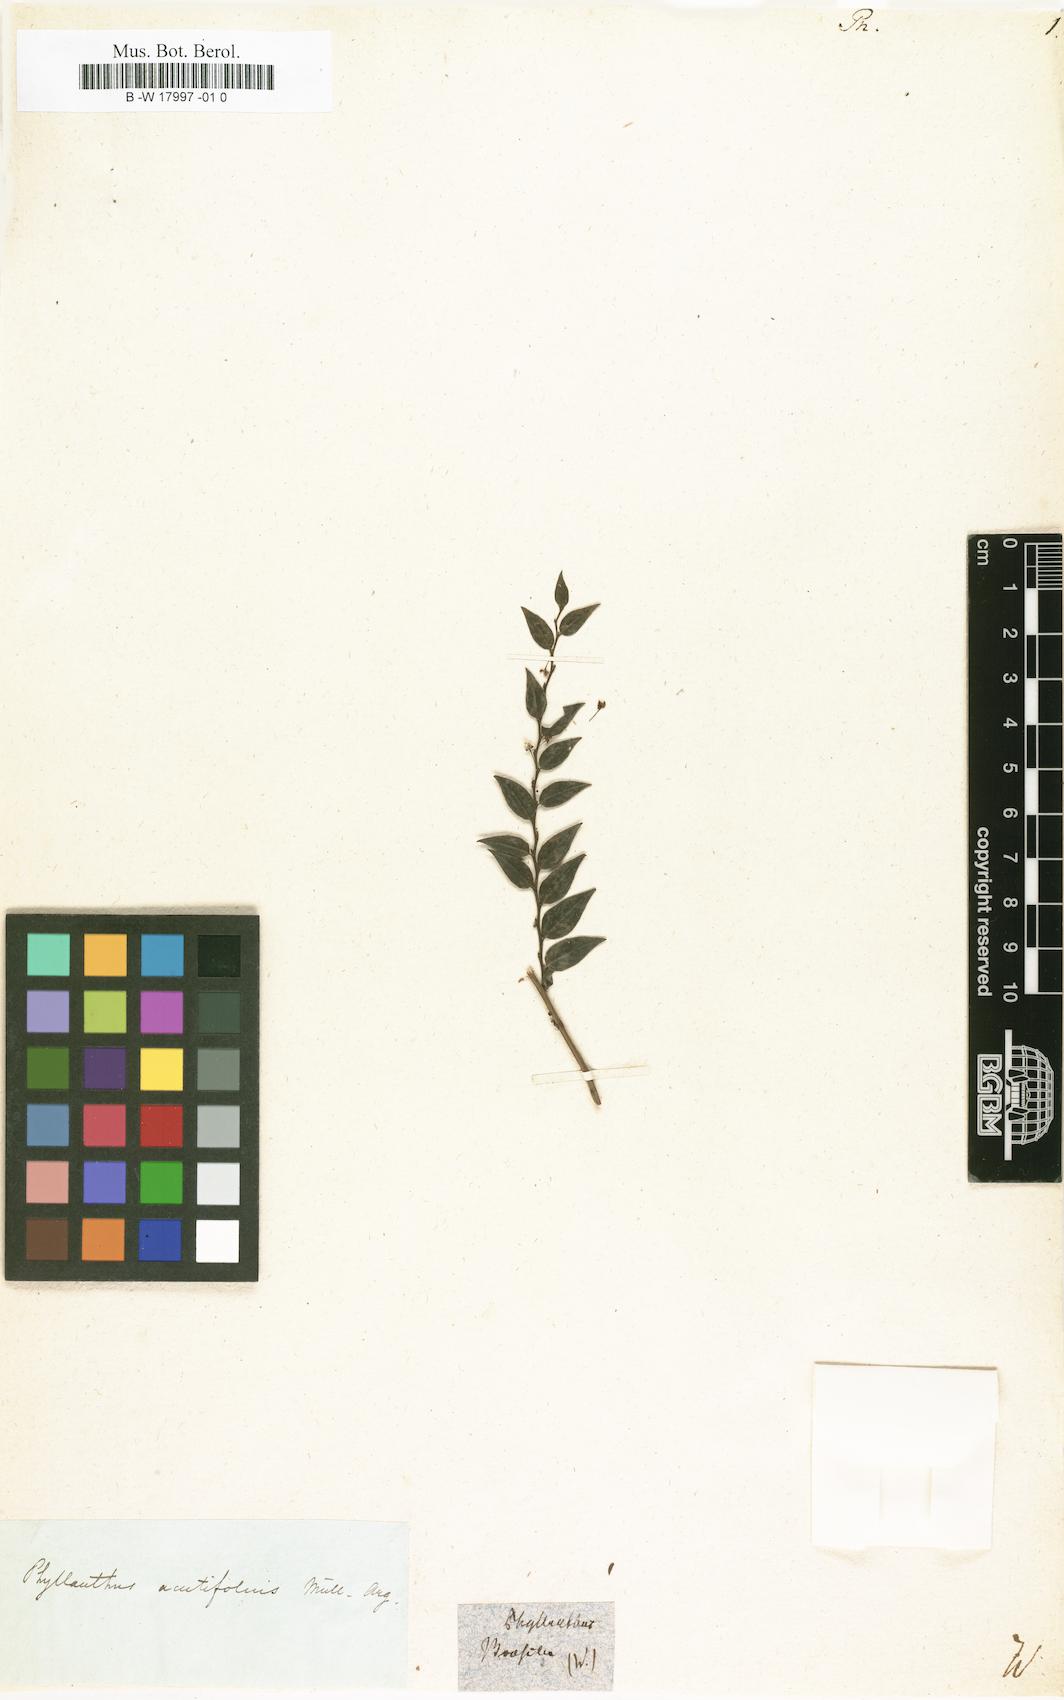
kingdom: Plantae
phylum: Tracheophyta
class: Magnoliopsida
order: Malpighiales
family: Phyllanthaceae
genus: Phyllanthus
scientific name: Phyllanthus
